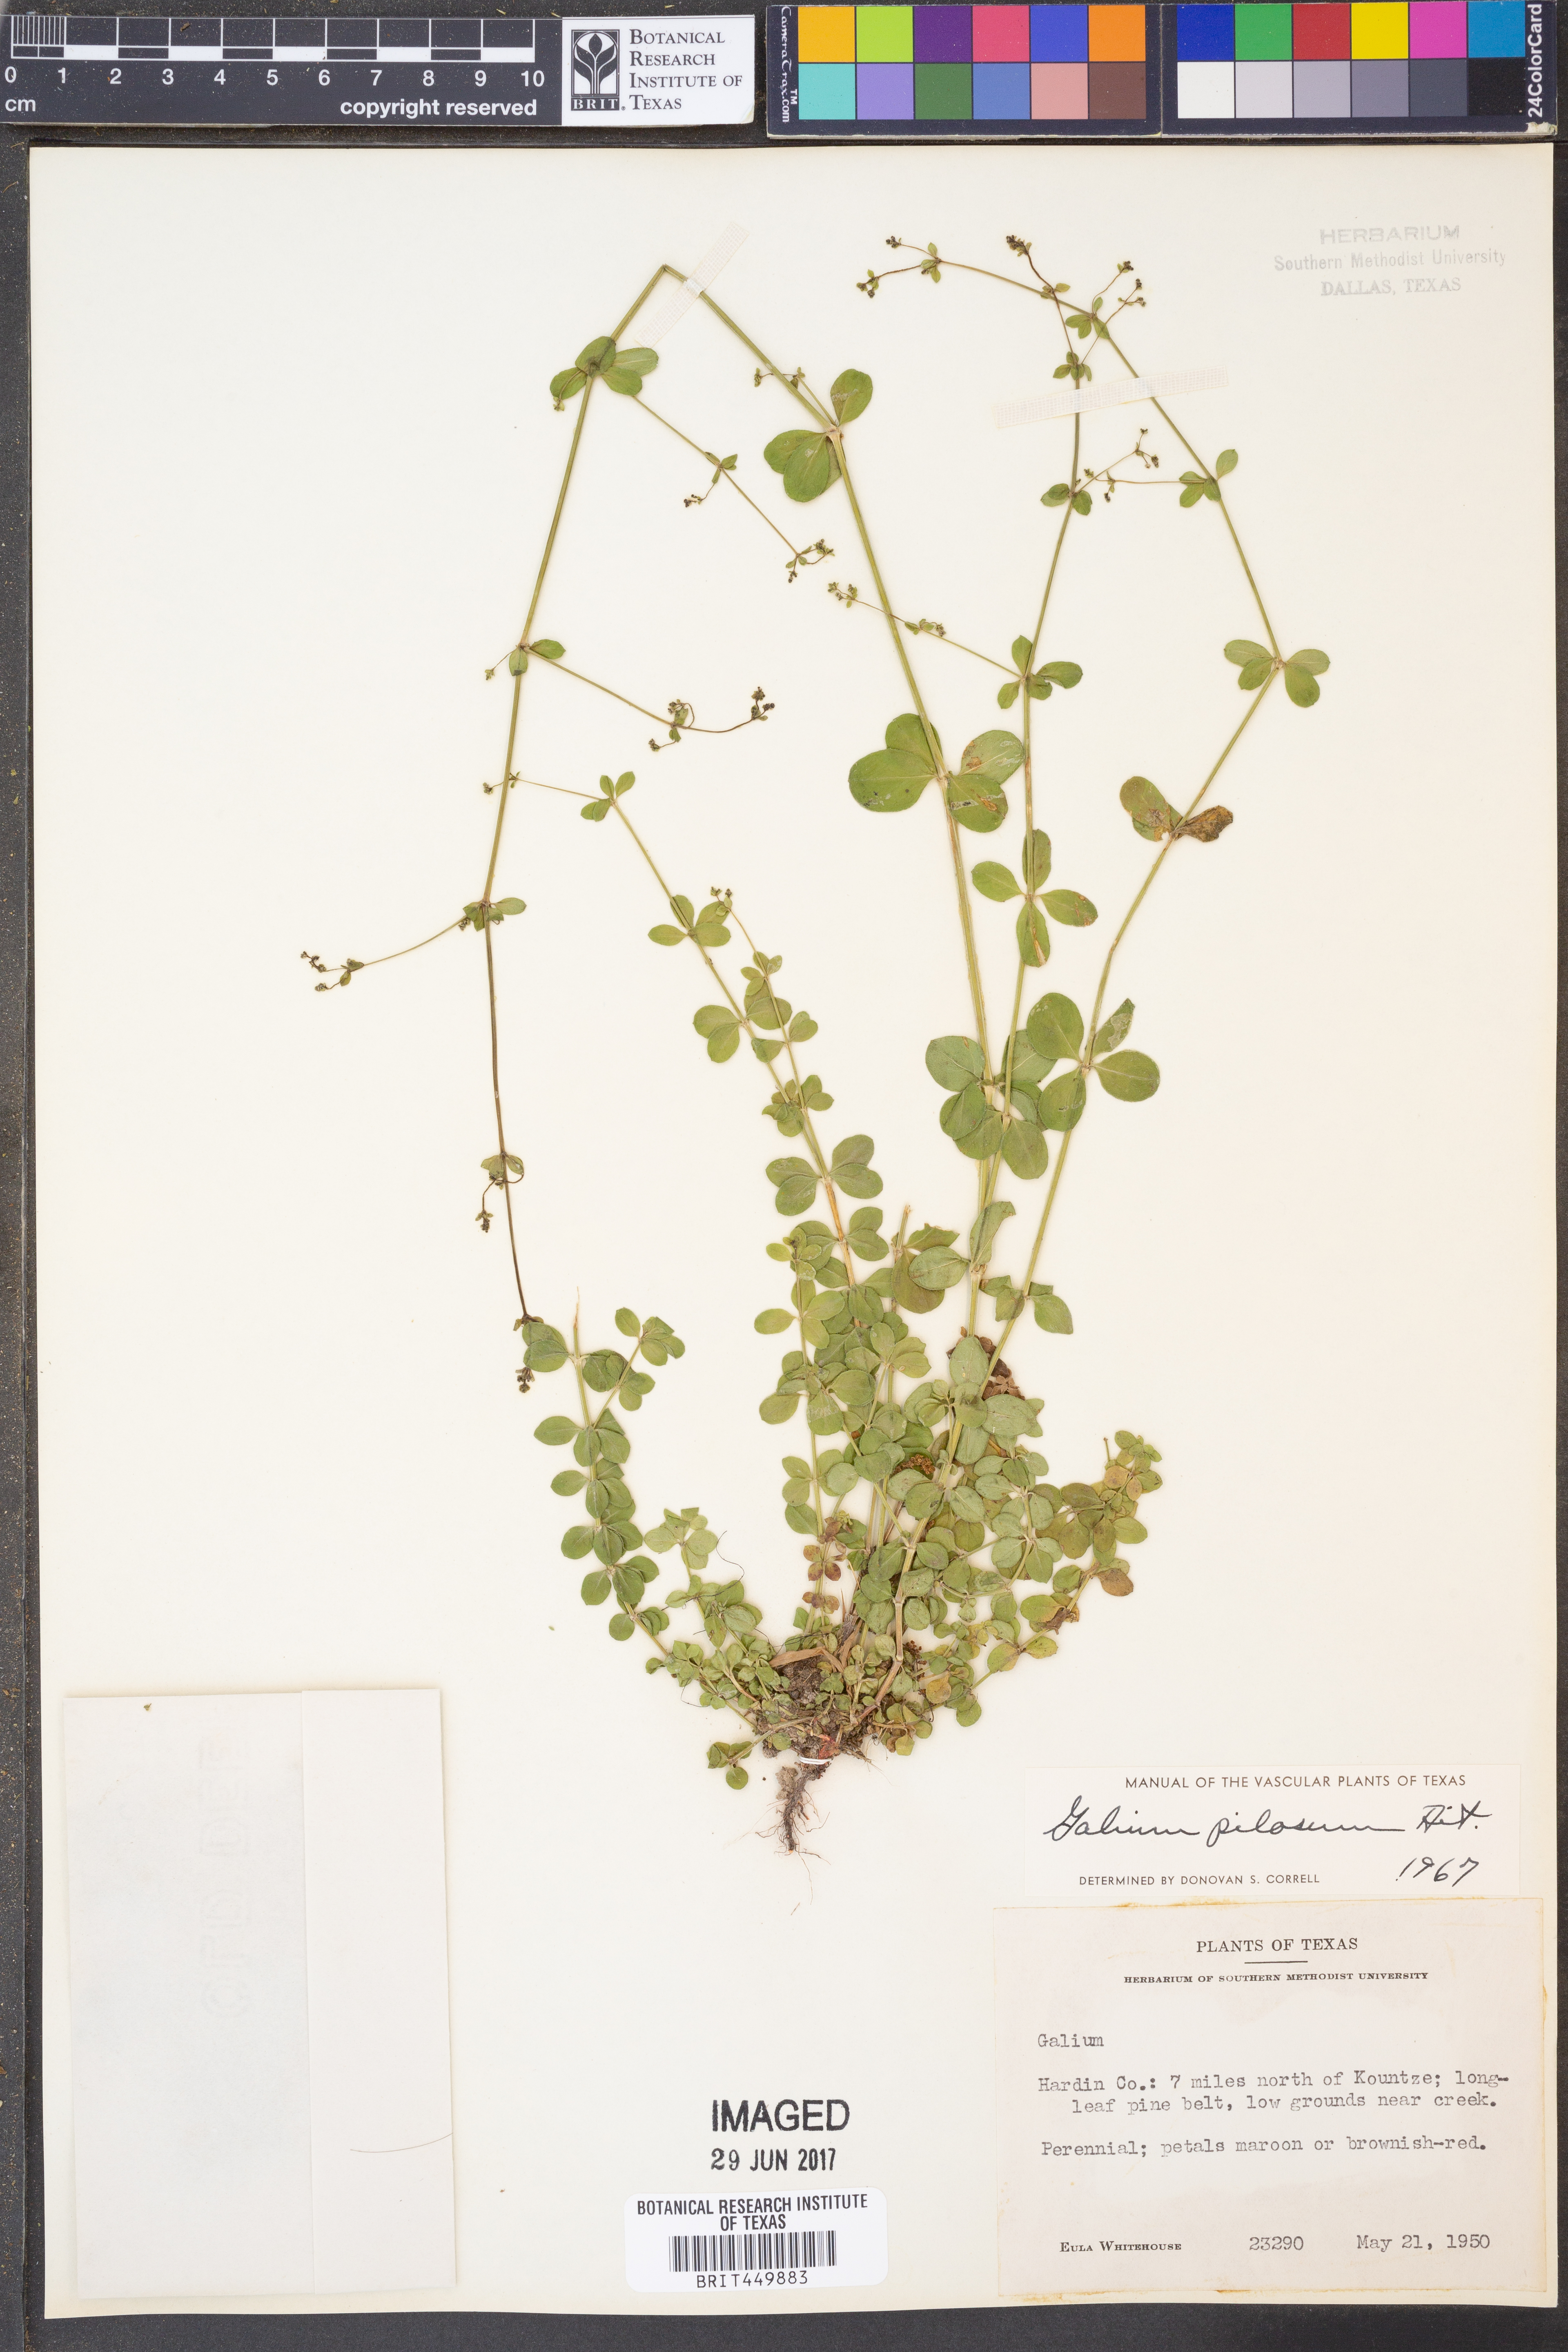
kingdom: Plantae
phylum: Tracheophyta
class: Magnoliopsida
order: Gentianales
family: Rubiaceae
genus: Galium
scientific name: Galium pilosum
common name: Hairy bedstraw
